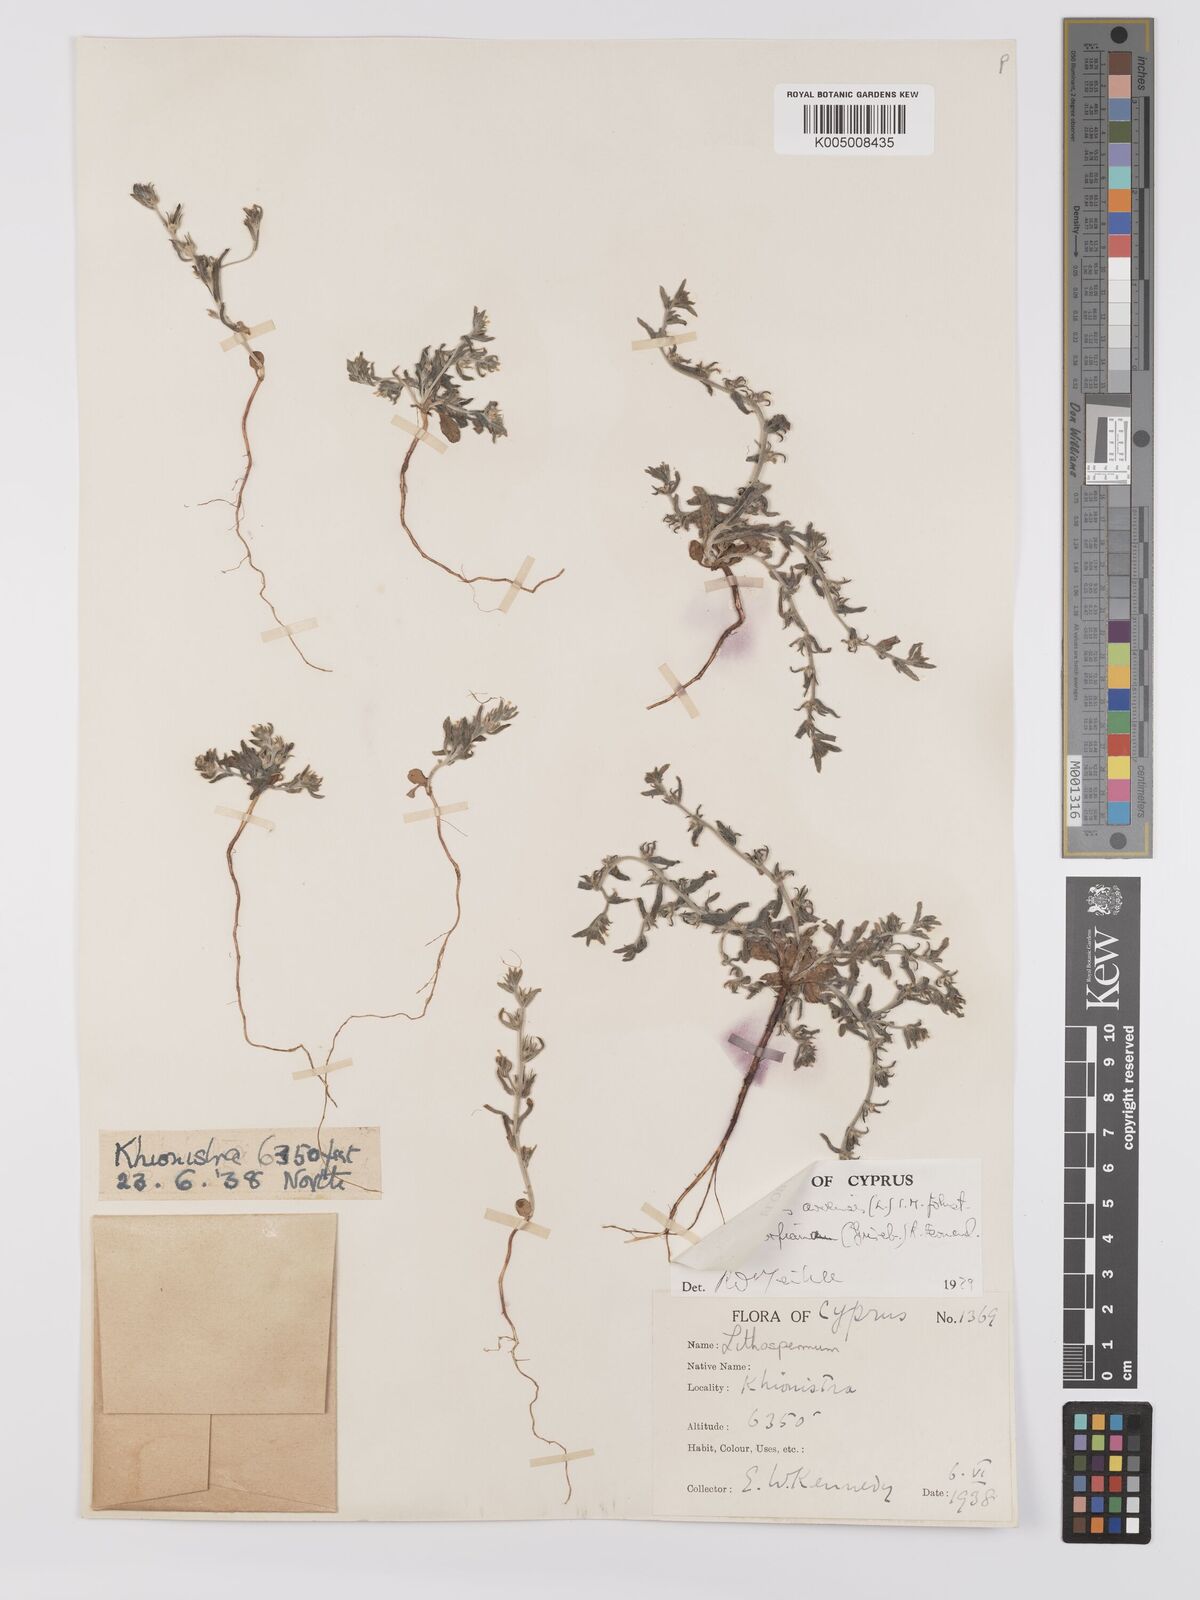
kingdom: Plantae
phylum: Tracheophyta
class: Magnoliopsida
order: Boraginales
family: Boraginaceae
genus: Buglossoides
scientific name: Buglossoides
